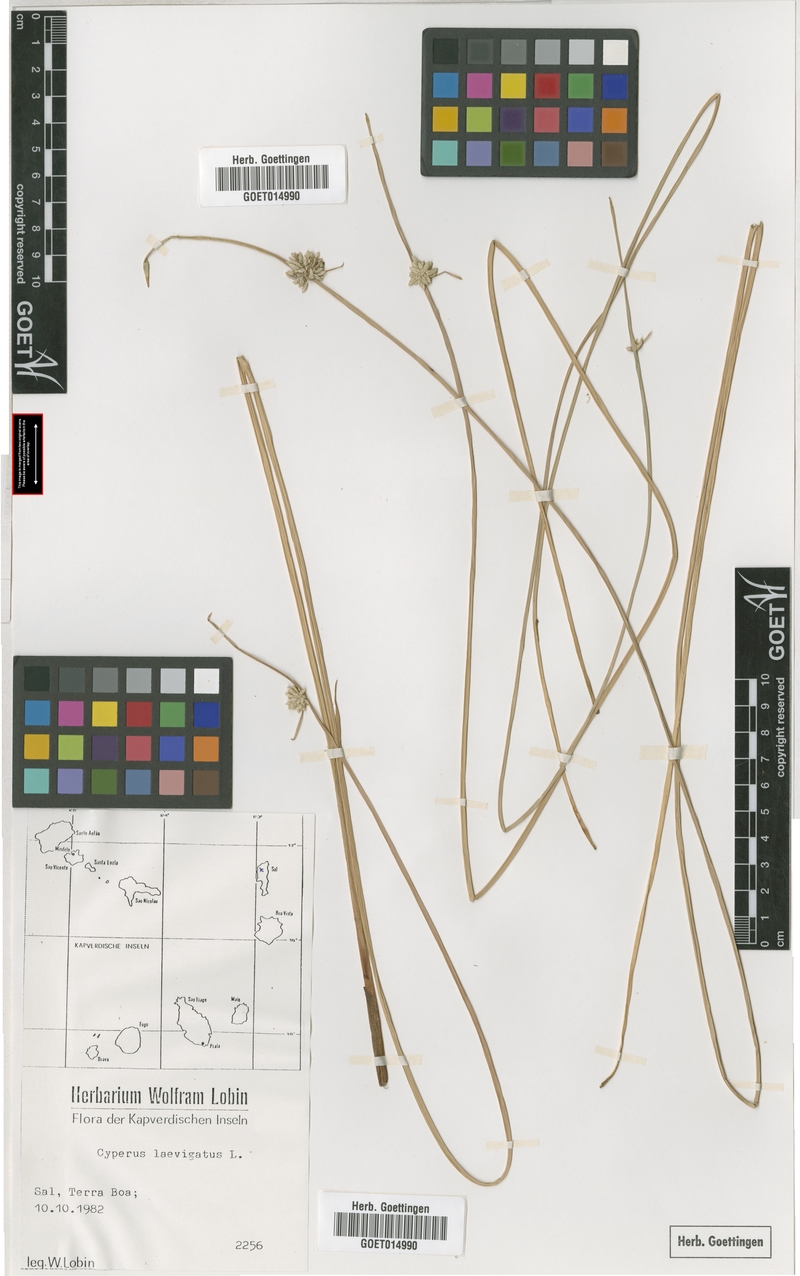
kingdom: Plantae
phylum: Tracheophyta
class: Liliopsida
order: Poales
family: Cyperaceae
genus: Cyperus
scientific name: Cyperus laevigatus
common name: Smooth flat sedge
